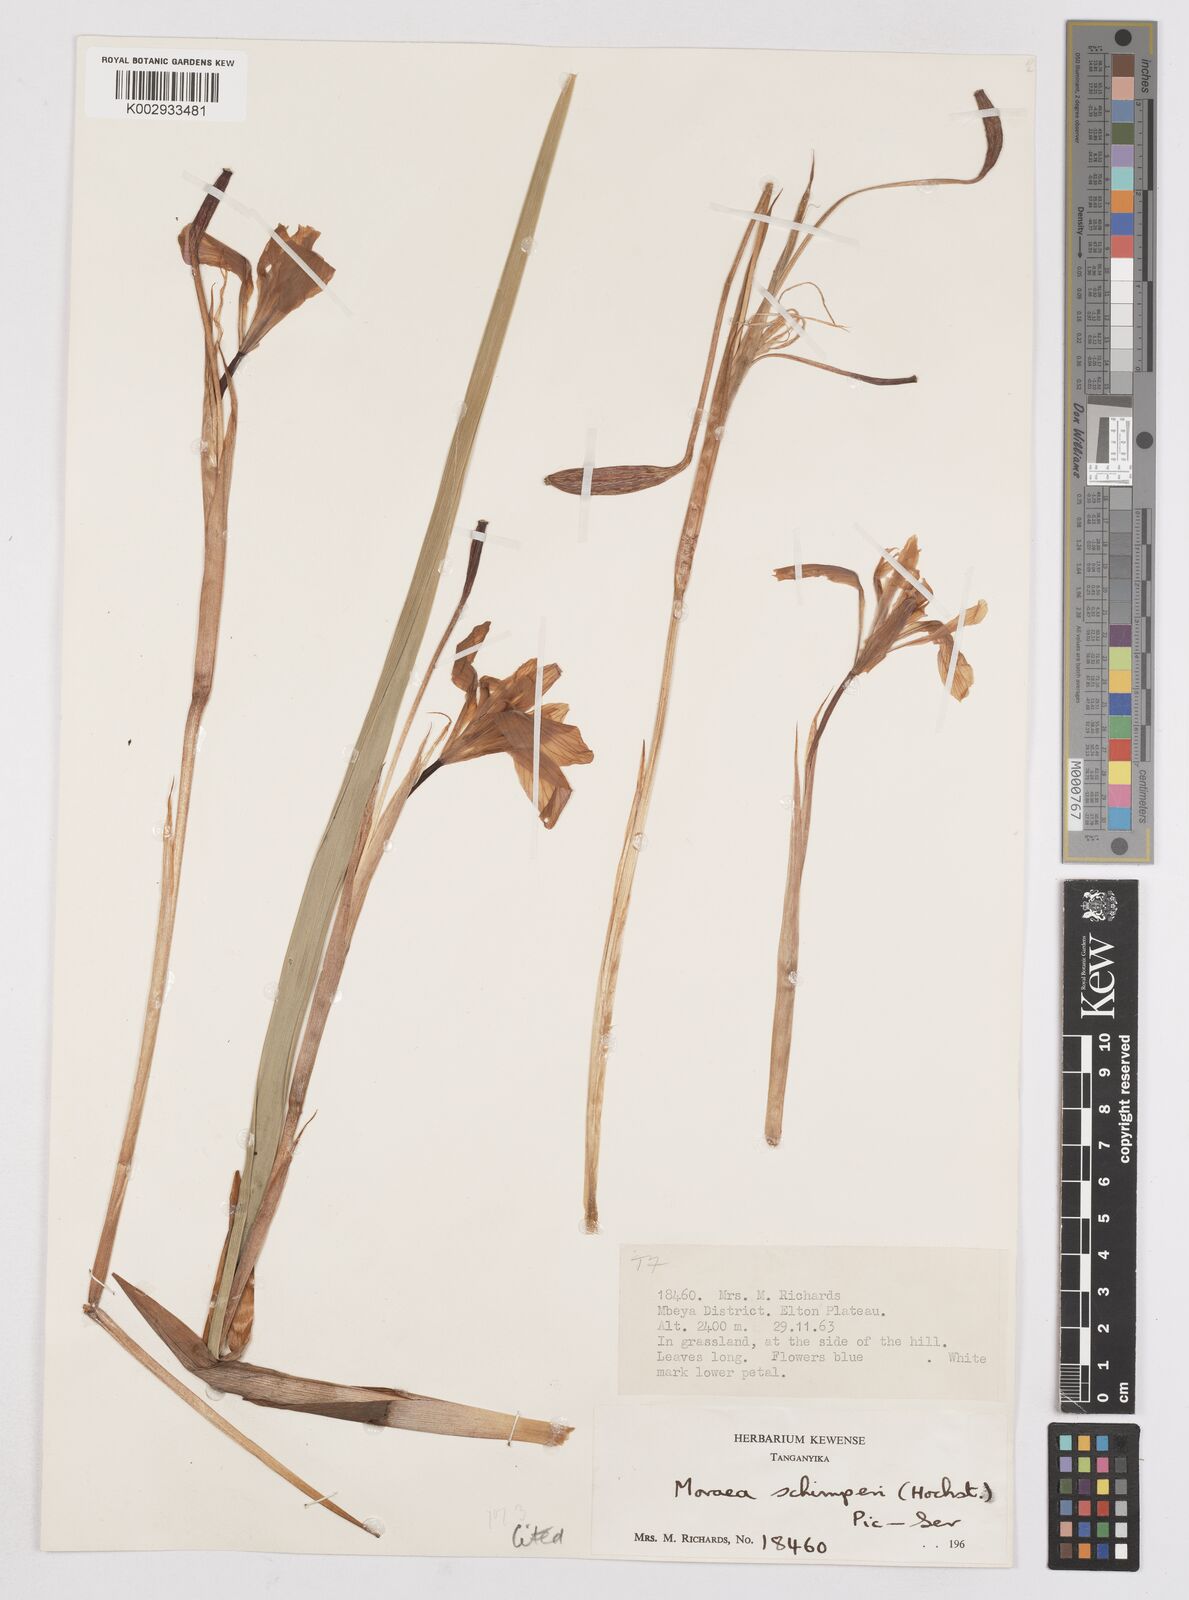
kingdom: Plantae
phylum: Tracheophyta
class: Liliopsida
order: Asparagales
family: Iridaceae
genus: Moraea
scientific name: Moraea schimperi
